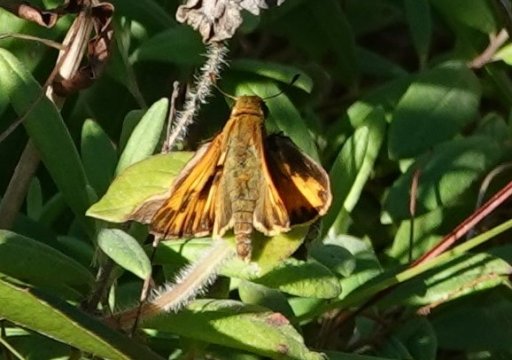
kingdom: Animalia
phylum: Arthropoda
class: Insecta
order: Lepidoptera
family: Hesperiidae
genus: Hylephila
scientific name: Hylephila phyleus
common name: Fiery Skipper
